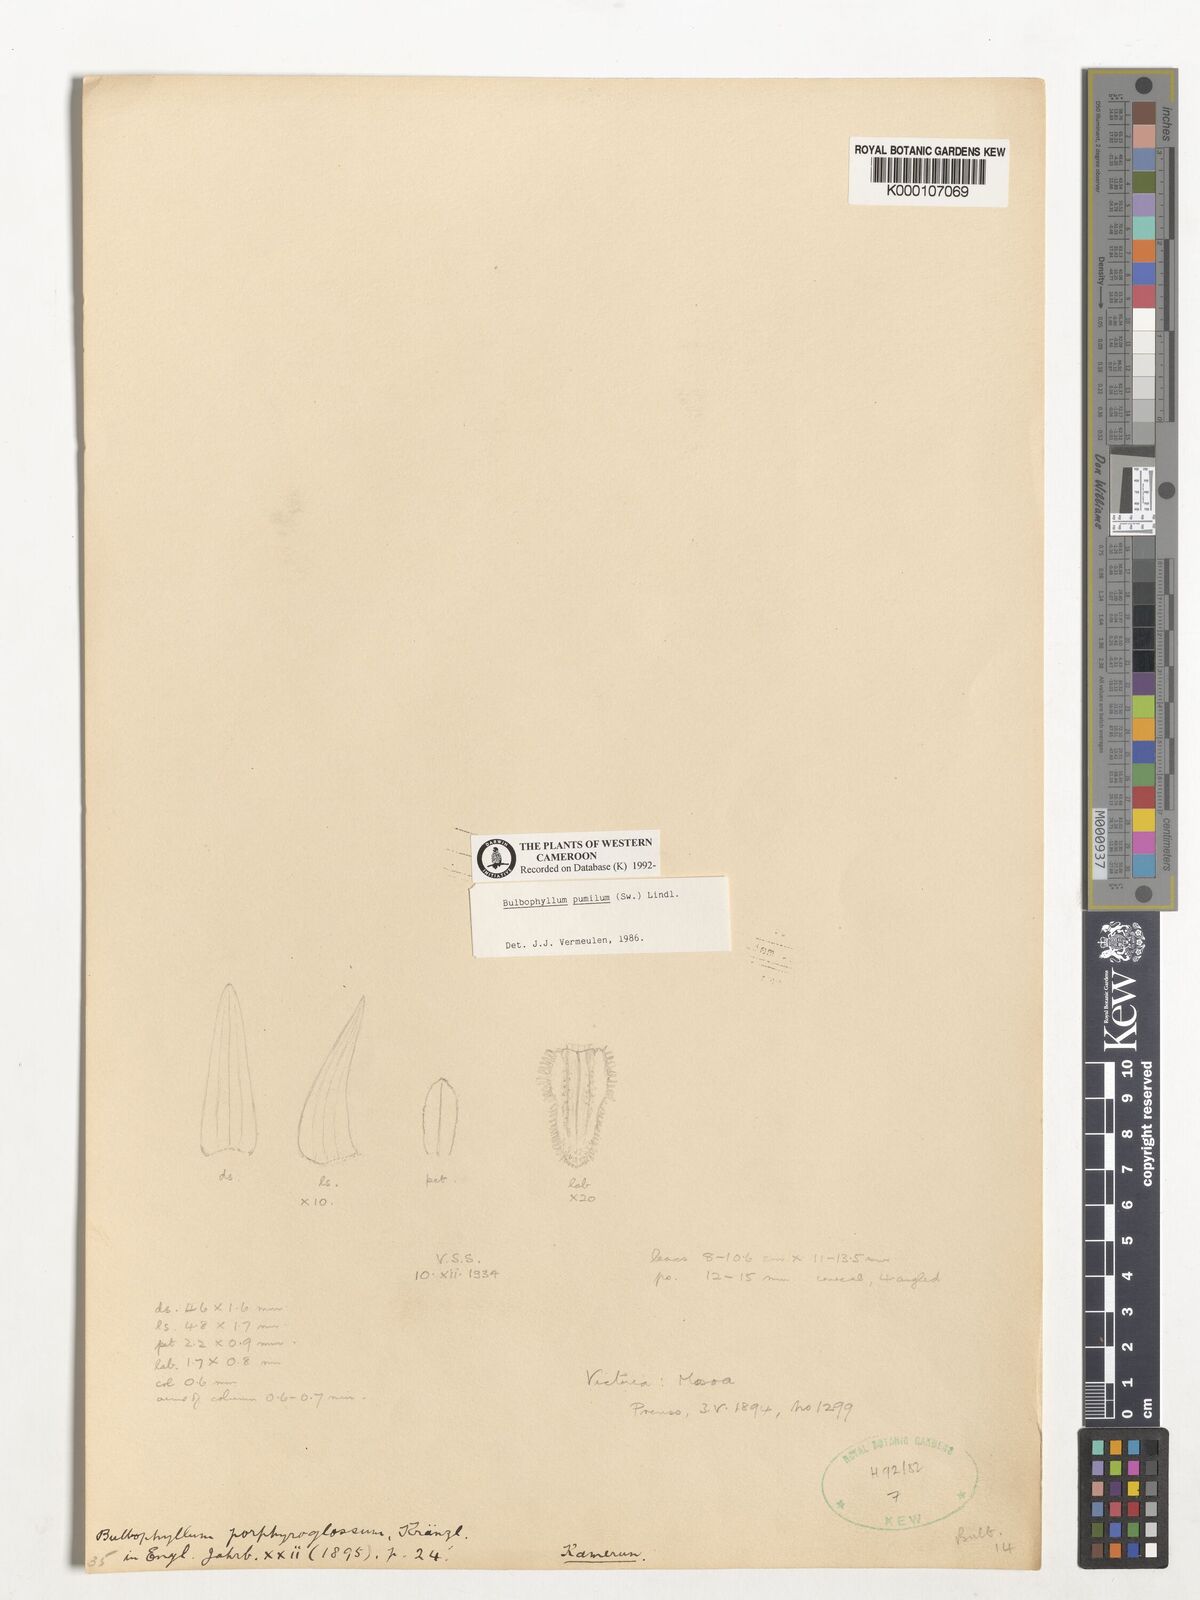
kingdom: Plantae
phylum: Tracheophyta
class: Liliopsida
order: Asparagales
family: Orchidaceae
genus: Bulbophyllum
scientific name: Bulbophyllum pumilum
